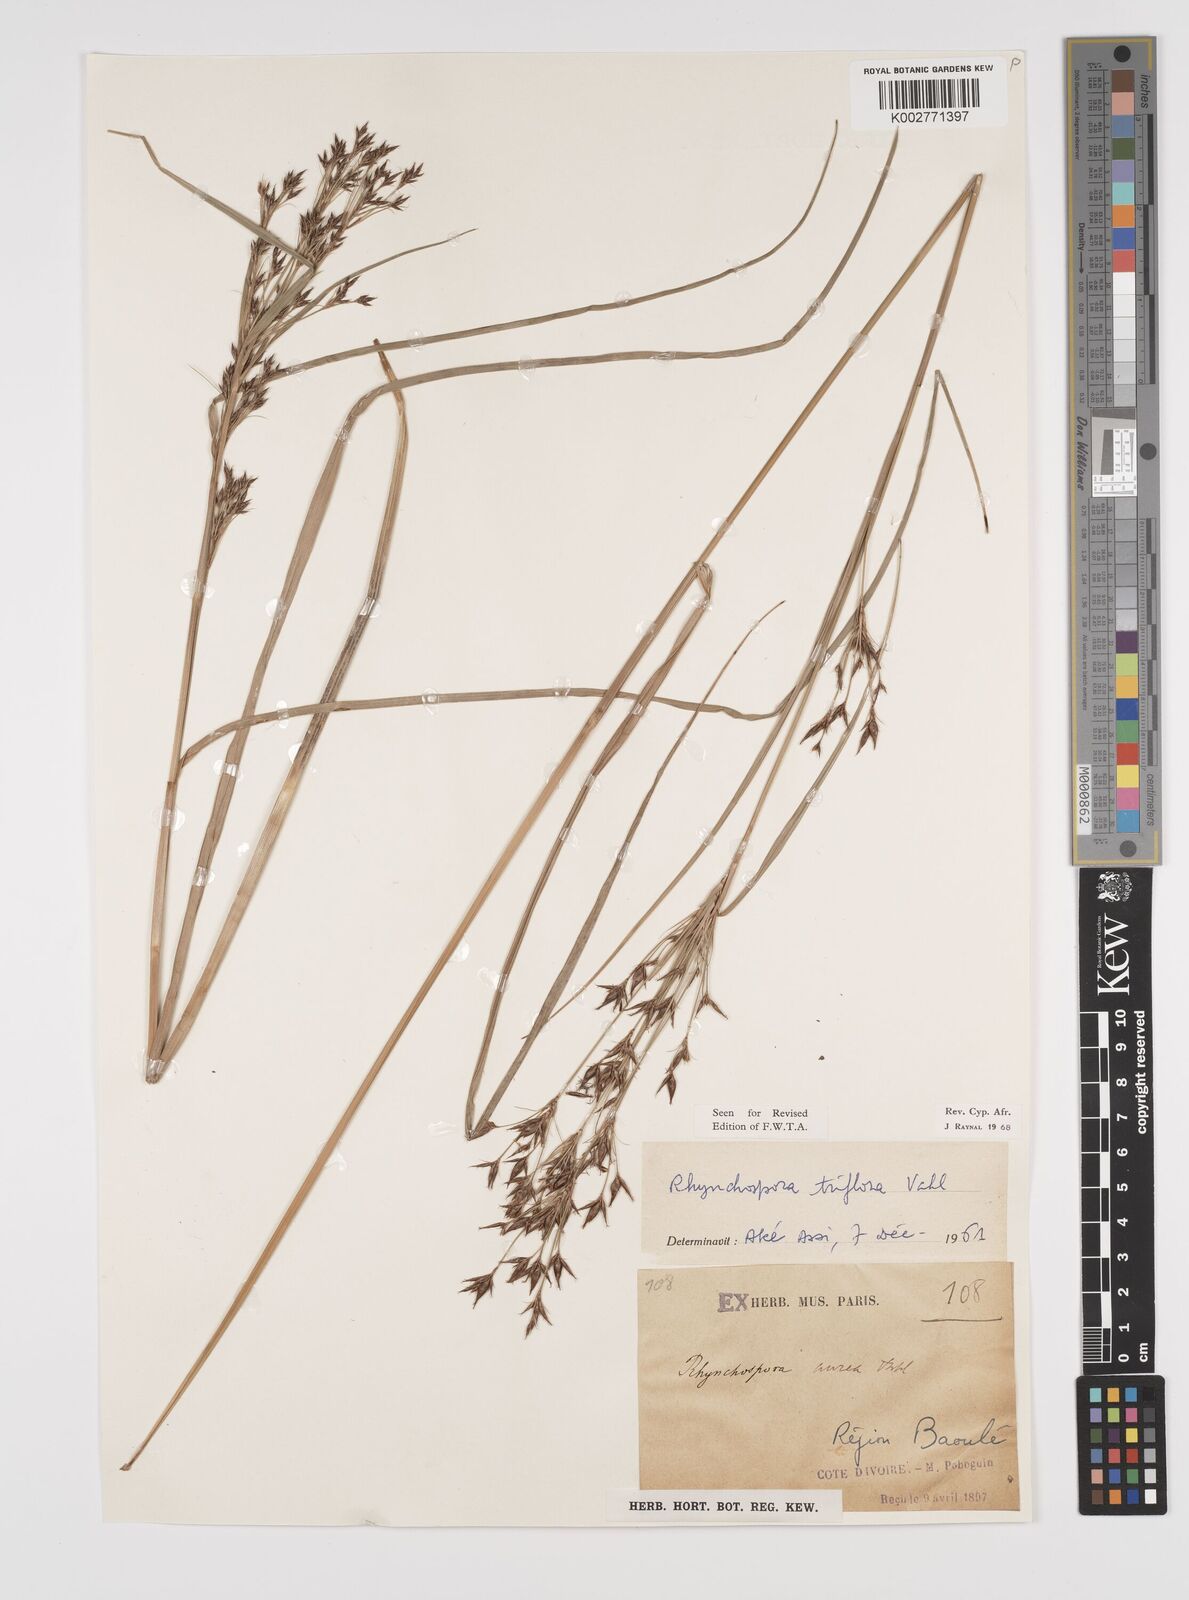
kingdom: Plantae
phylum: Tracheophyta
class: Liliopsida
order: Poales
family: Cyperaceae
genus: Rhynchospora
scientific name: Rhynchospora triflora
